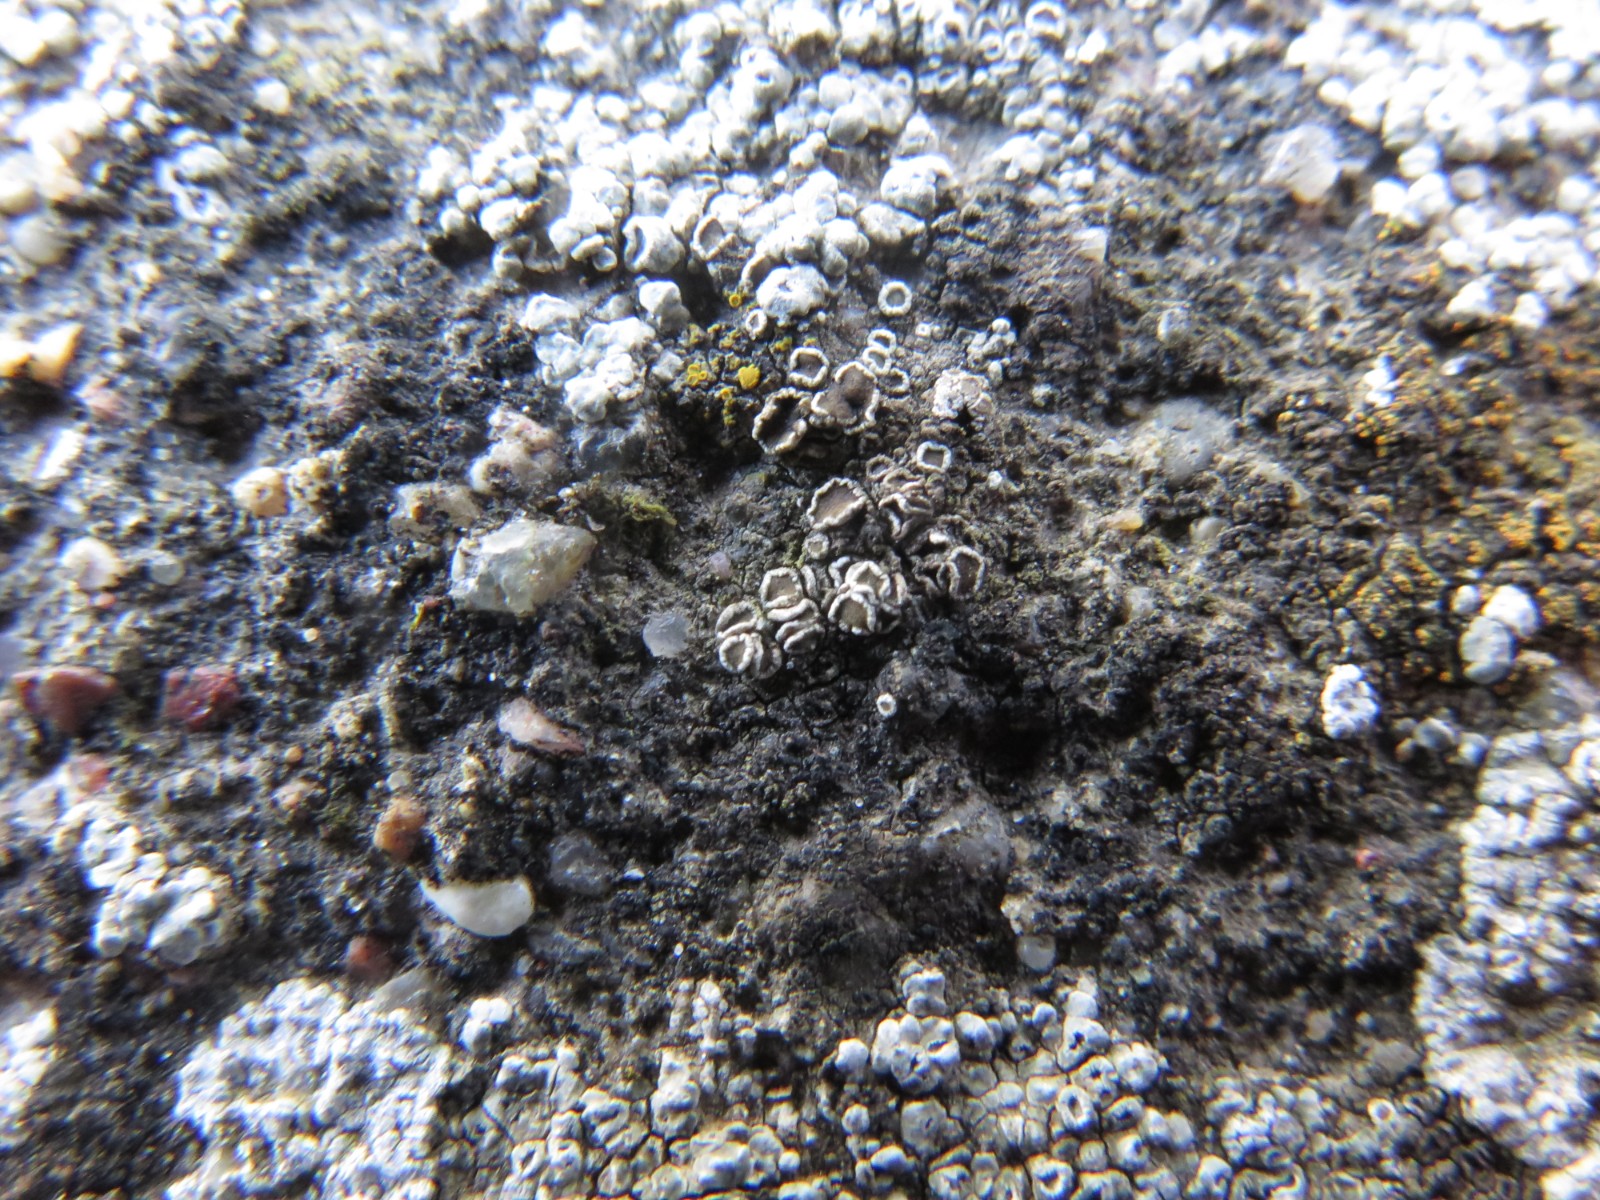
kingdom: Fungi
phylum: Ascomycota
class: Lecanoromycetes
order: Lecanorales
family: Lecanoraceae
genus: Polyozosia
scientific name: Polyozosia dispersa
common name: spredt kantskivelav
